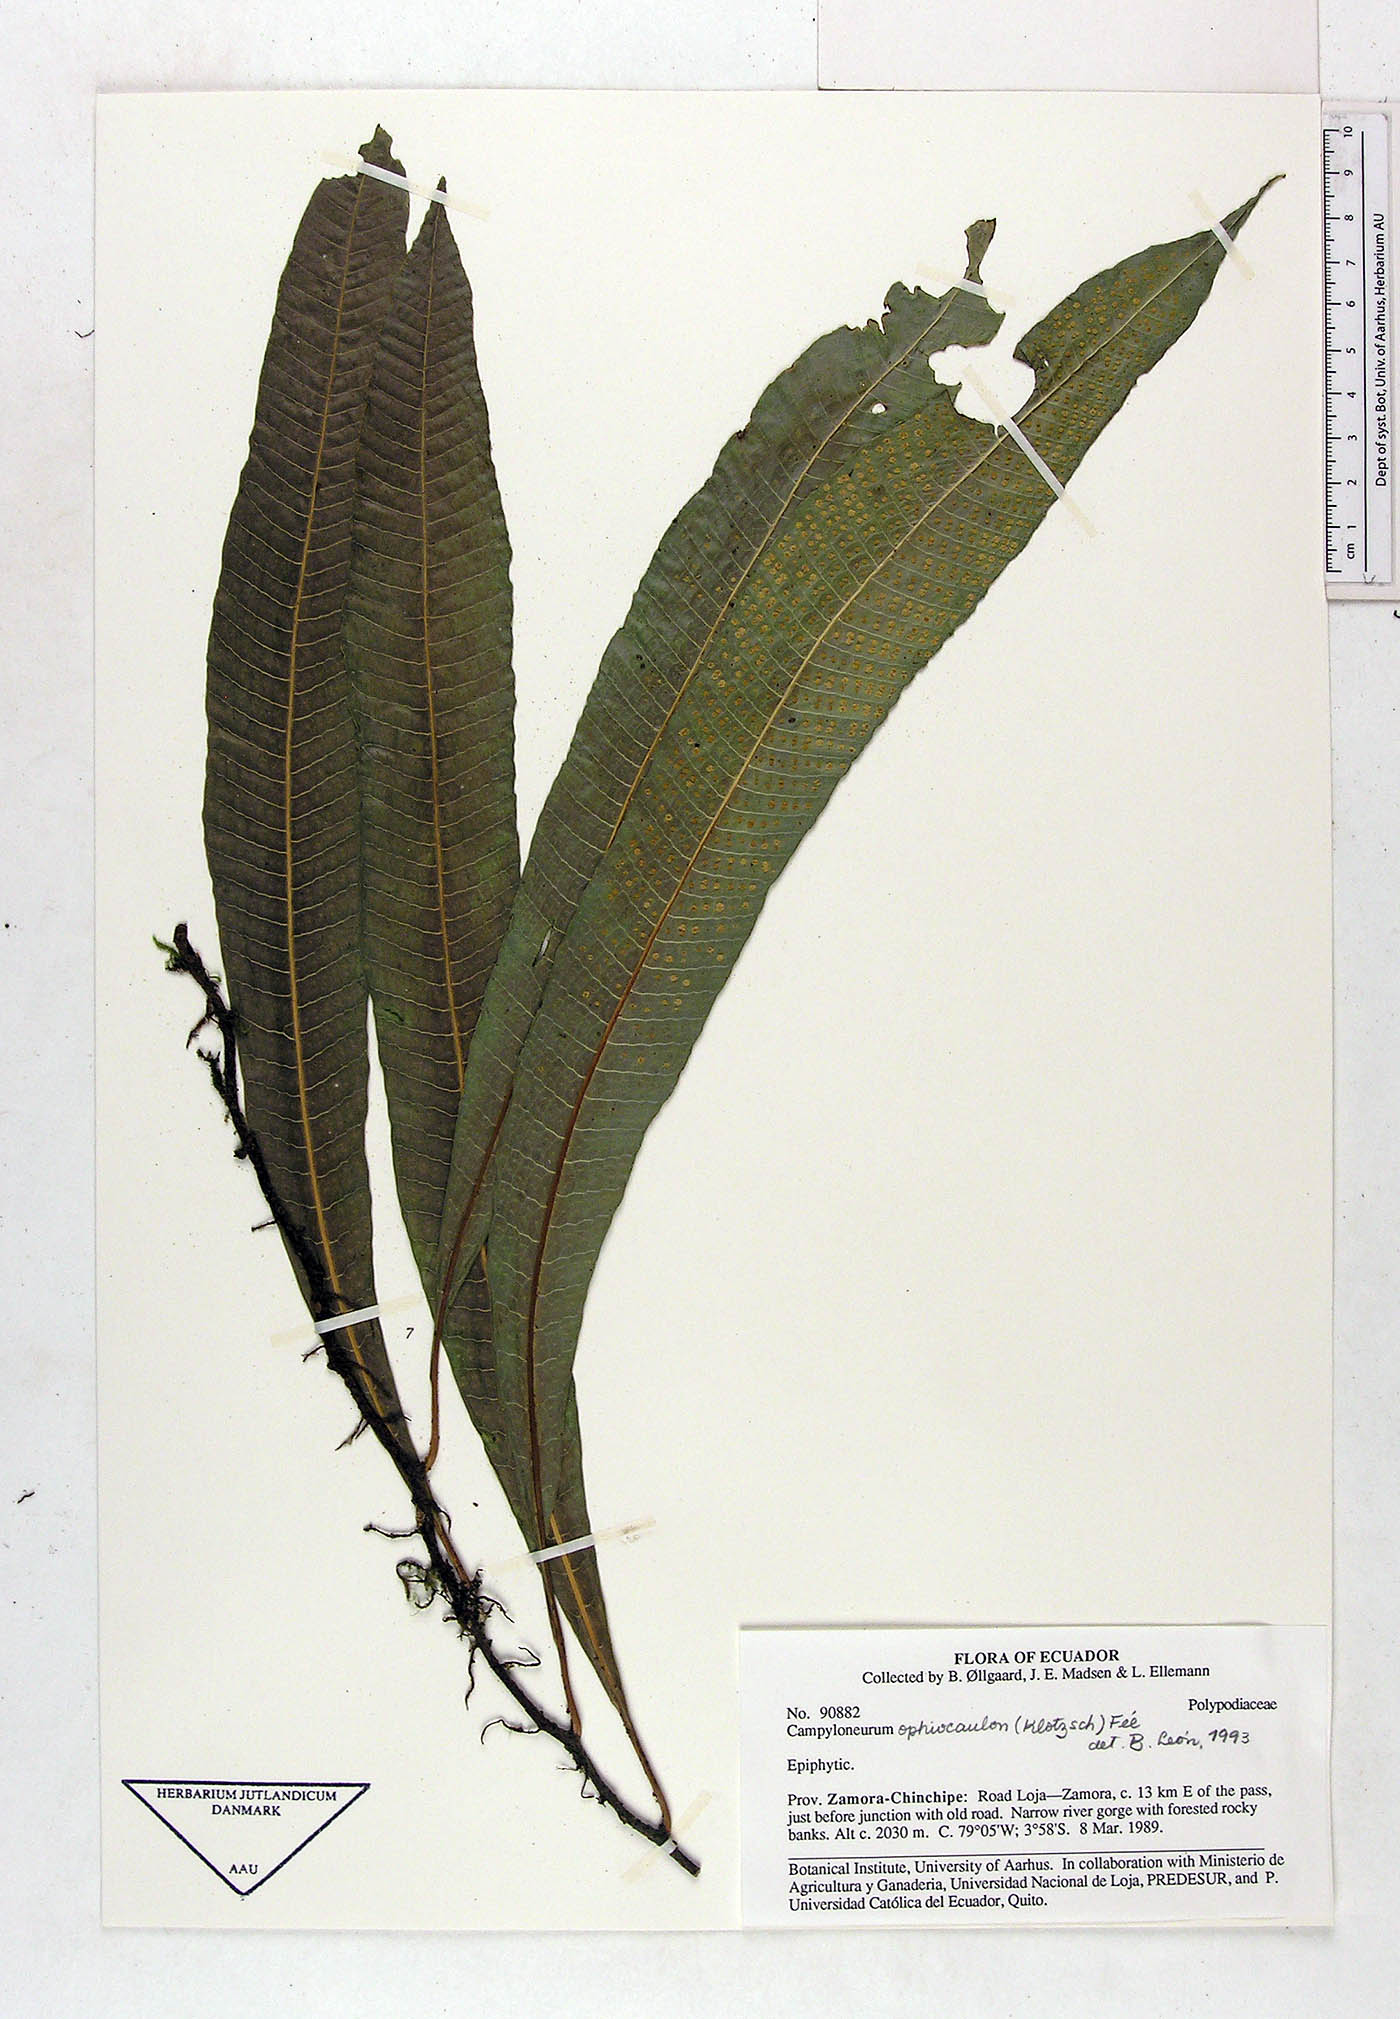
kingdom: Plantae
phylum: Tracheophyta
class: Polypodiopsida
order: Polypodiales
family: Polypodiaceae
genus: Campyloneurum
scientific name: Campyloneurum ophiocaulon
